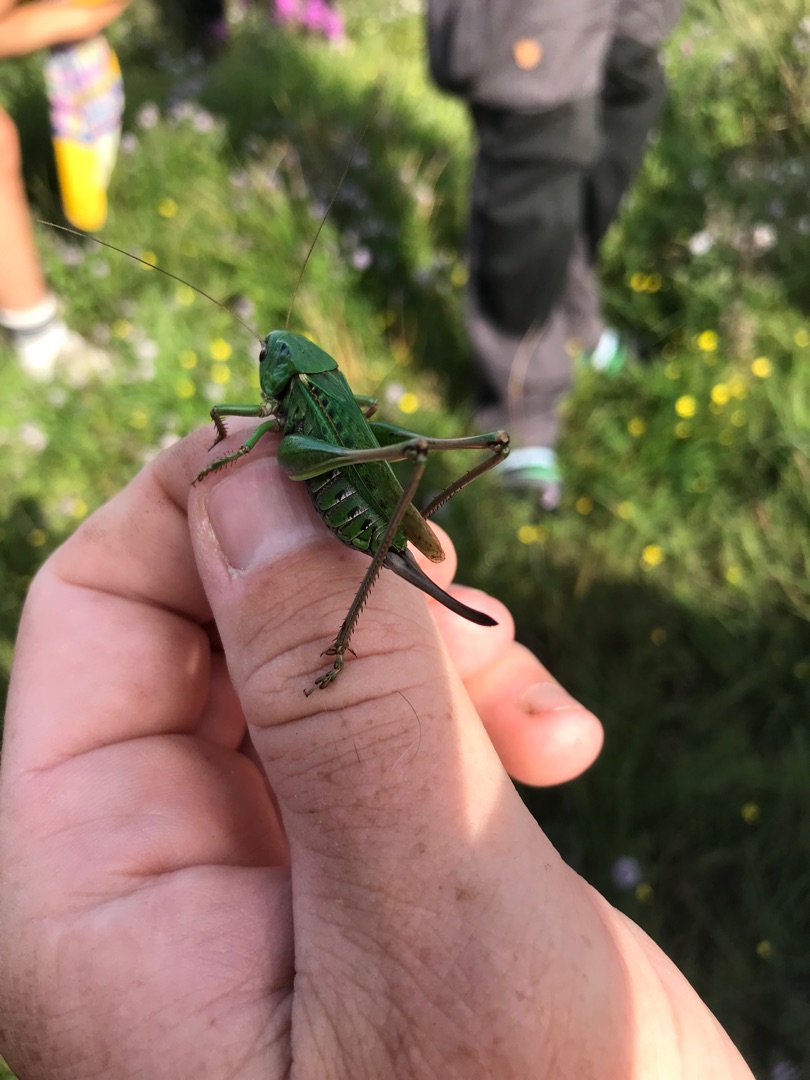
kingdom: Animalia
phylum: Arthropoda
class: Insecta
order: Orthoptera
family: Tettigoniidae
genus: Decticus
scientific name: Decticus verrucivorus
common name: Vortebider
